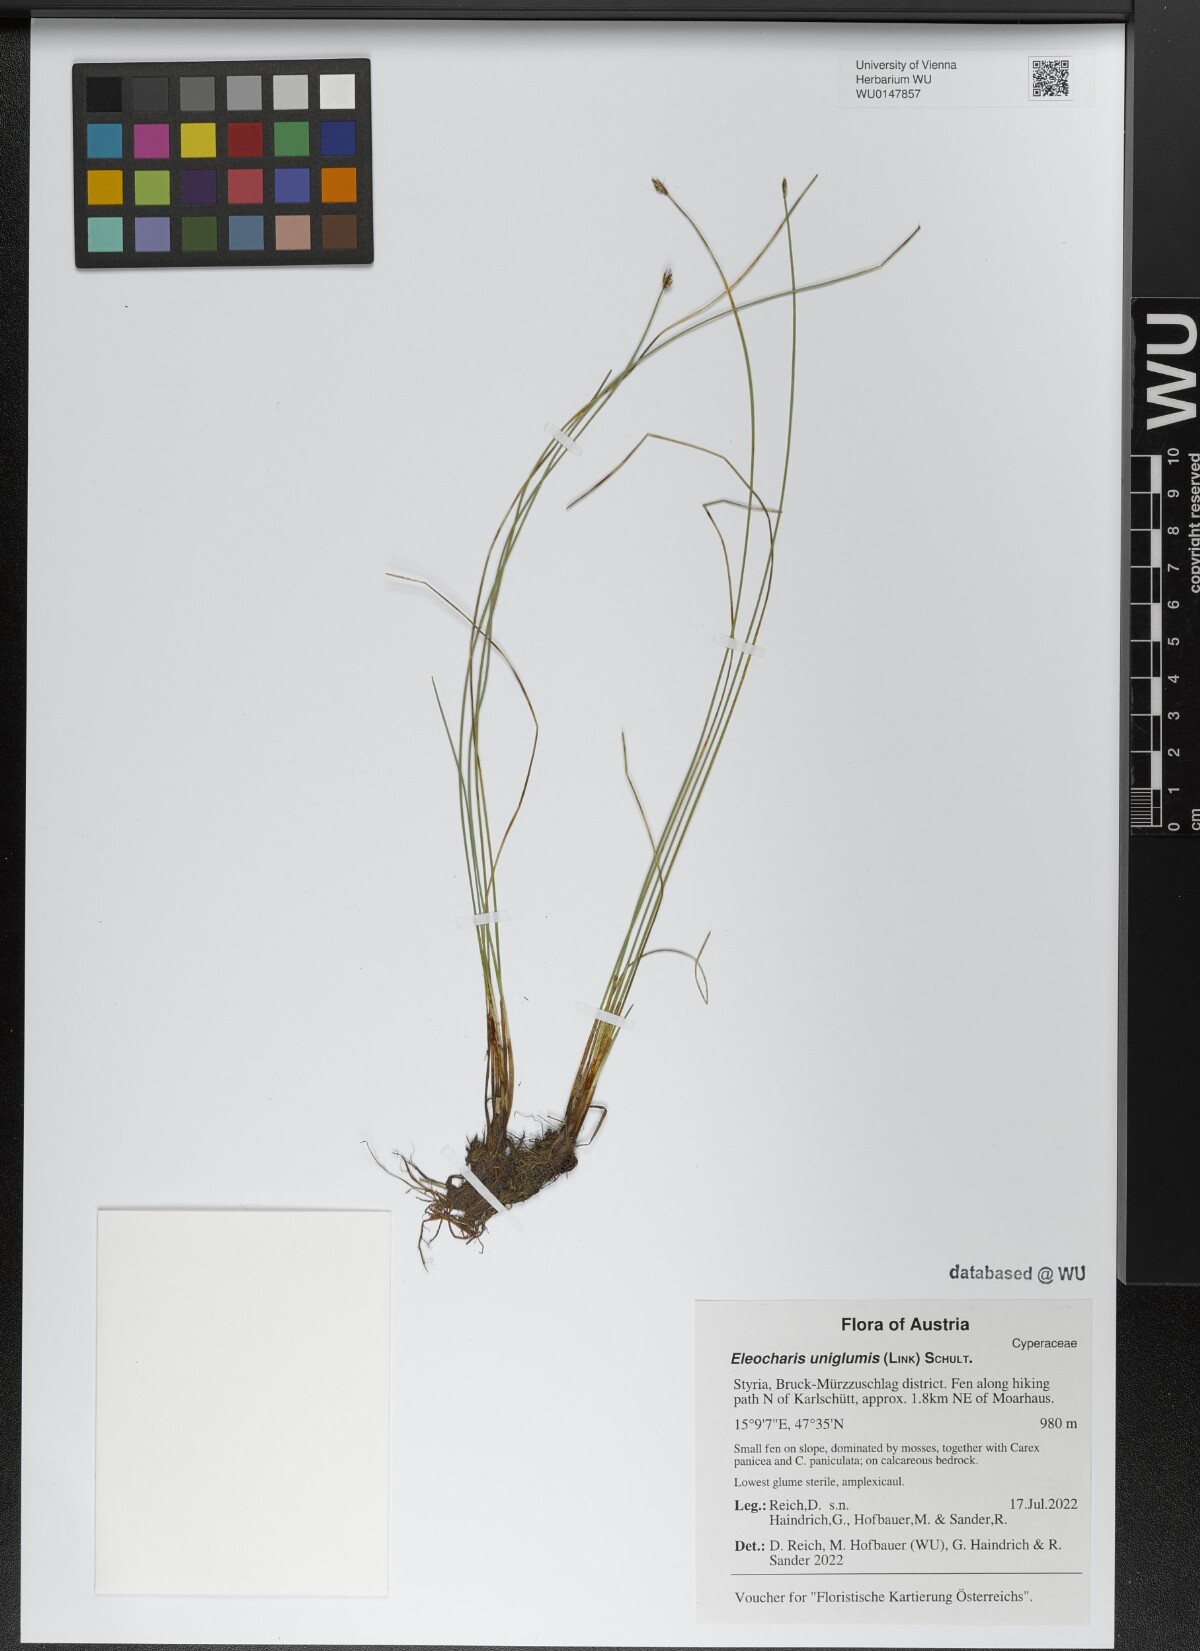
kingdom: Plantae
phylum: Tracheophyta
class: Liliopsida
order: Poales
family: Cyperaceae
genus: Eleocharis
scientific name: Eleocharis uniglumis
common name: Slender spike-rush
